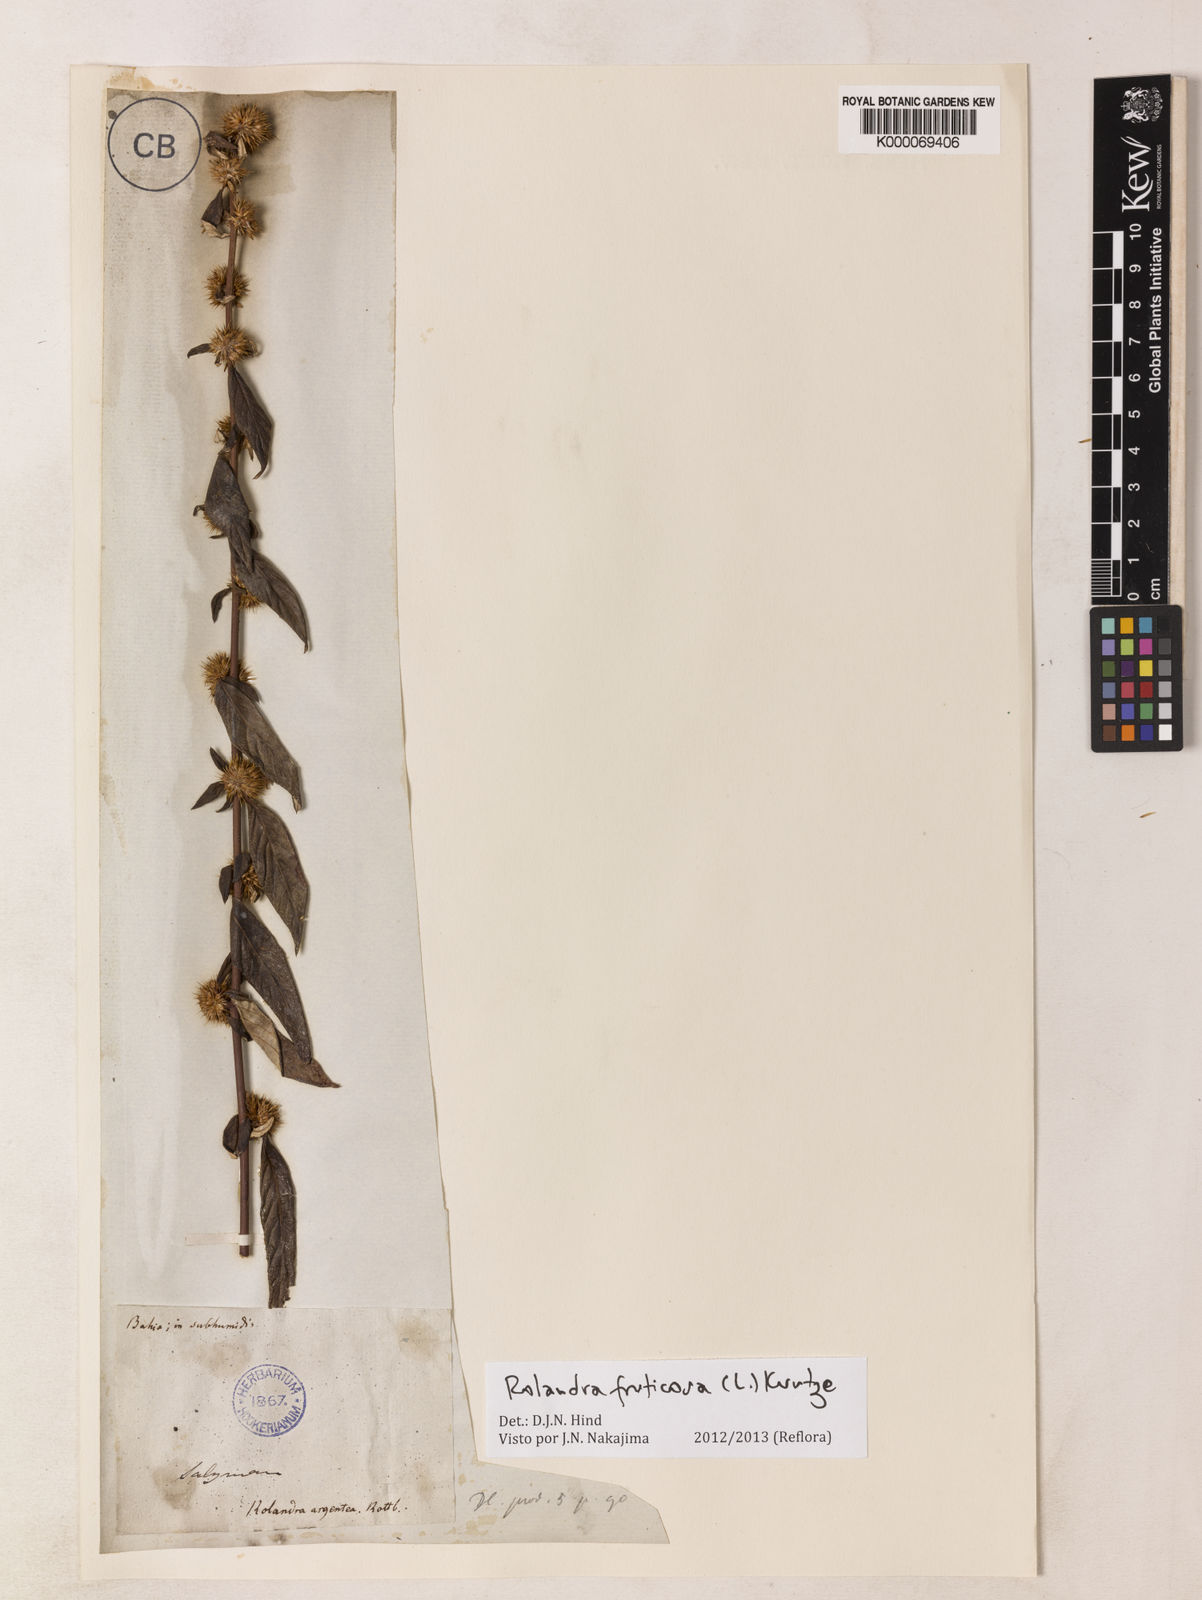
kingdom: Plantae
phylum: Tracheophyta
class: Magnoliopsida
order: Asterales
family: Asteraceae
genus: Rolandra
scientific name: Rolandra fruticosa
